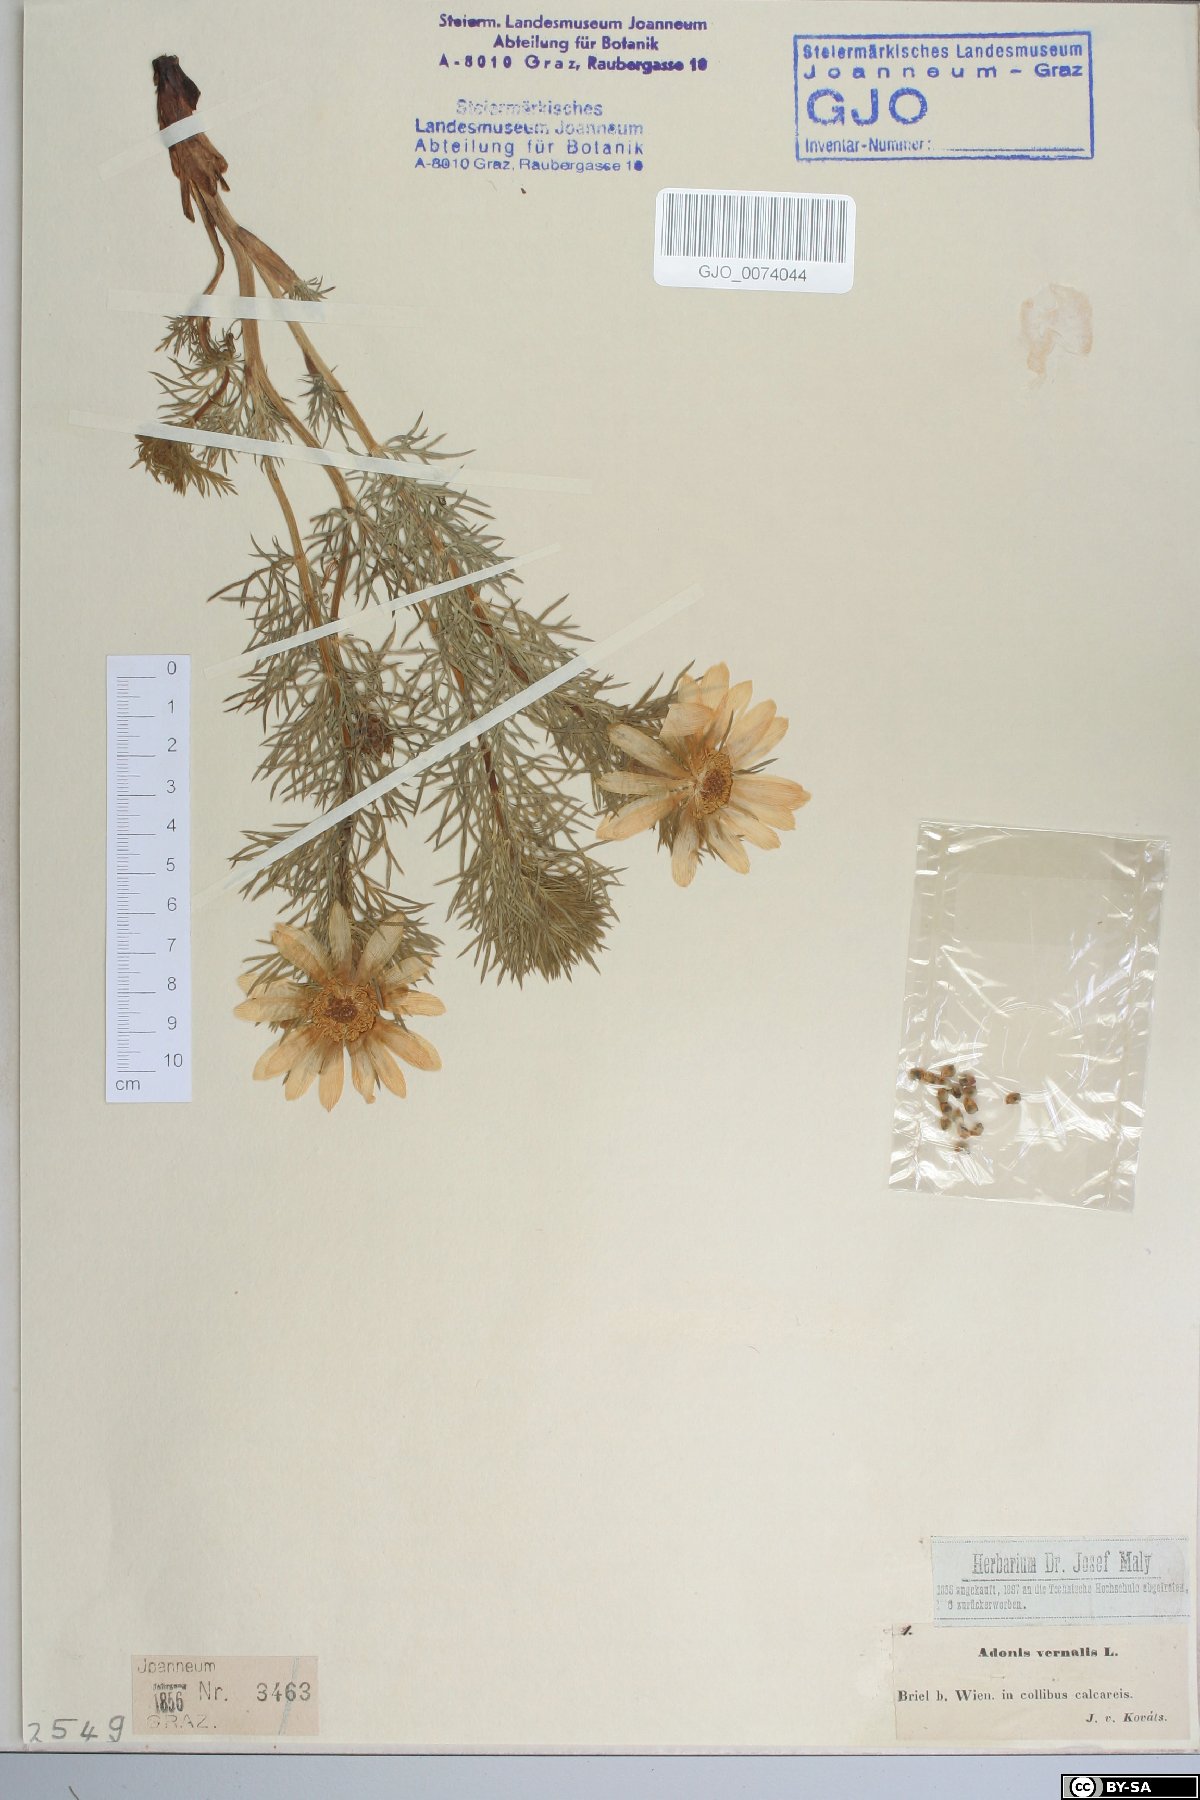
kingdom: Plantae
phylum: Tracheophyta
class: Magnoliopsida
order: Ranunculales
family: Ranunculaceae
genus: Adonis
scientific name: Adonis vernalis
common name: Yellow pheasants-eye
